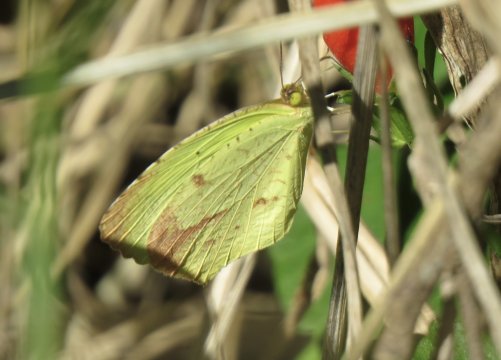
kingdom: Animalia
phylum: Arthropoda
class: Insecta
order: Lepidoptera
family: Pieridae
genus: Eurema
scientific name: Eurema boisduvaliana
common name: Boisduval's Yellow
